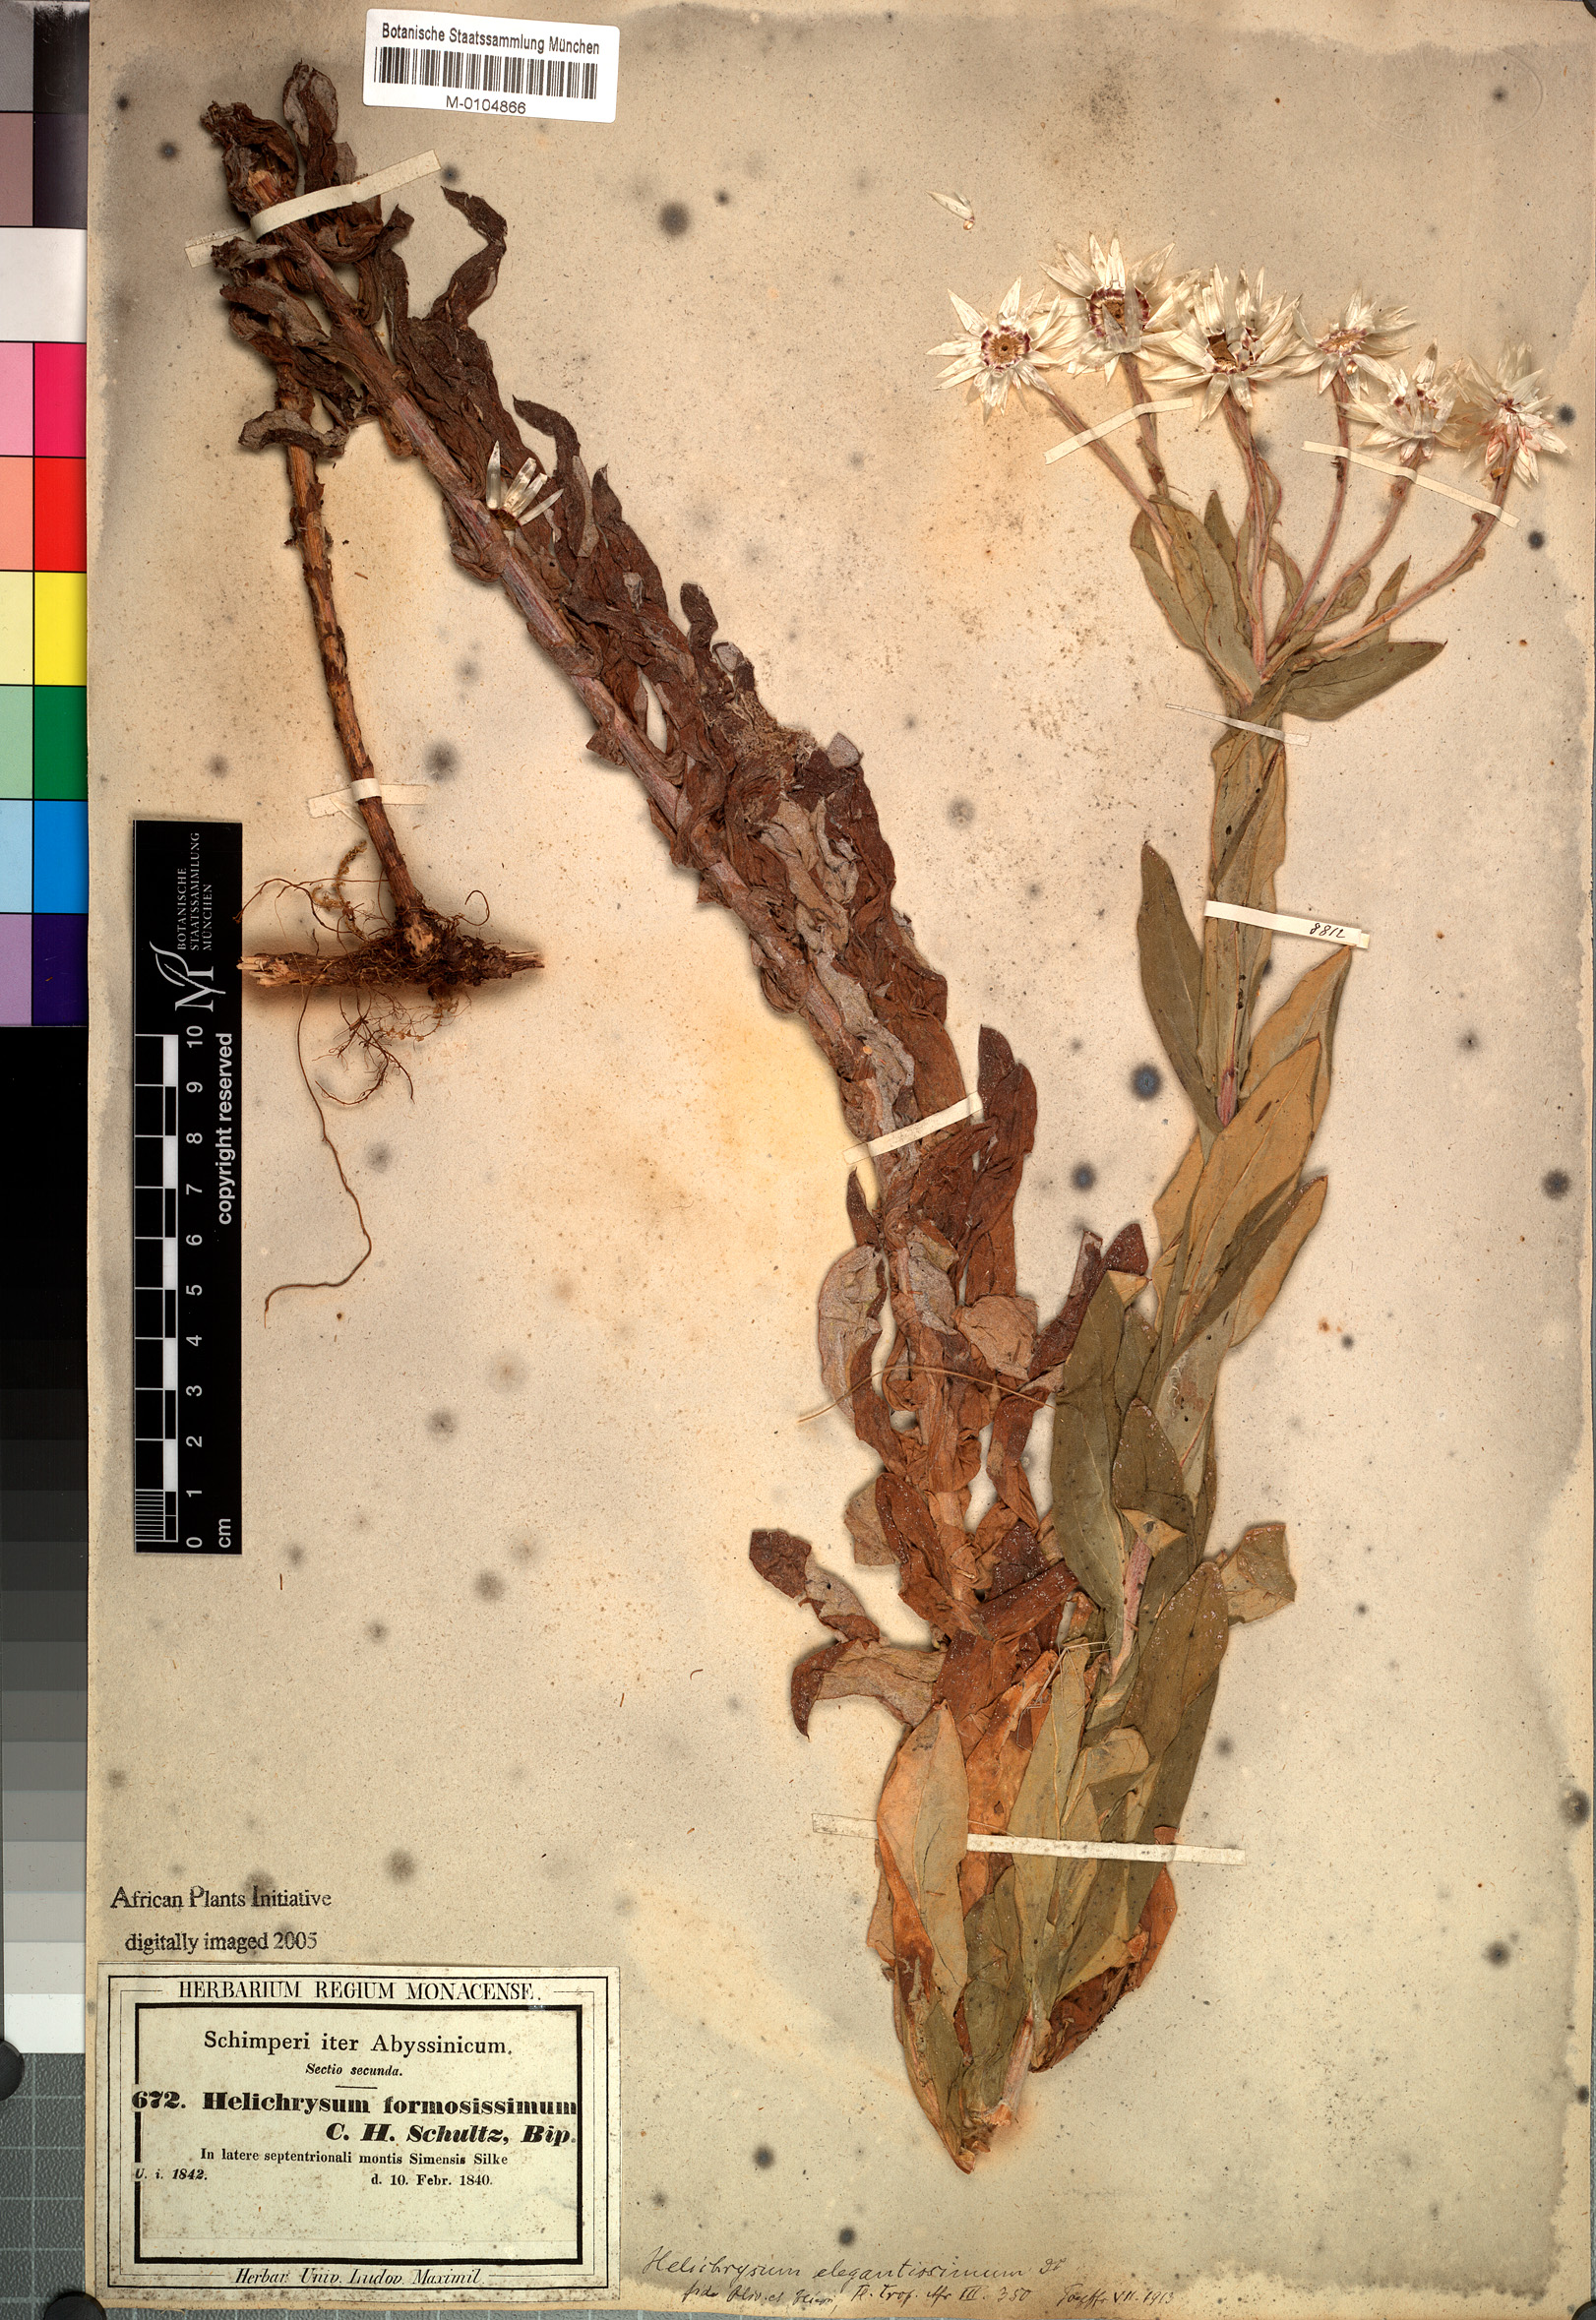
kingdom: Plantae
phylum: Tracheophyta
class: Magnoliopsida
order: Asterales
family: Asteraceae
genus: Helichrysum
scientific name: Helichrysum formosissimum
